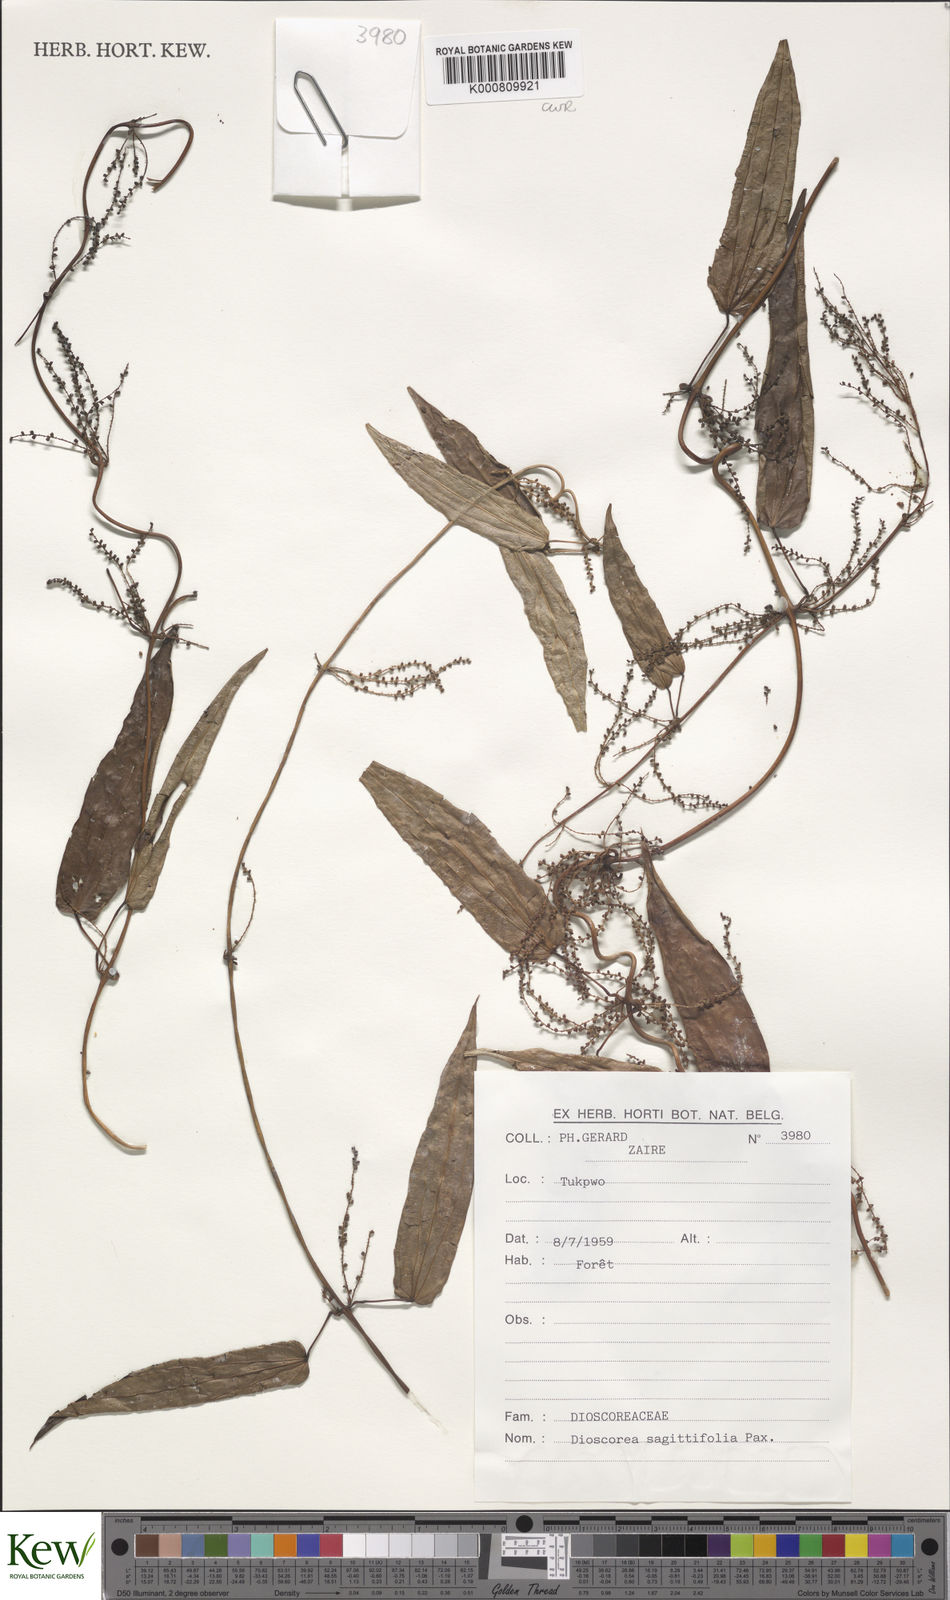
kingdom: Plantae
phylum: Tracheophyta
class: Liliopsida
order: Dioscoreales
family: Dioscoreaceae
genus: Dioscorea
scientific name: Dioscorea sagittifolia
